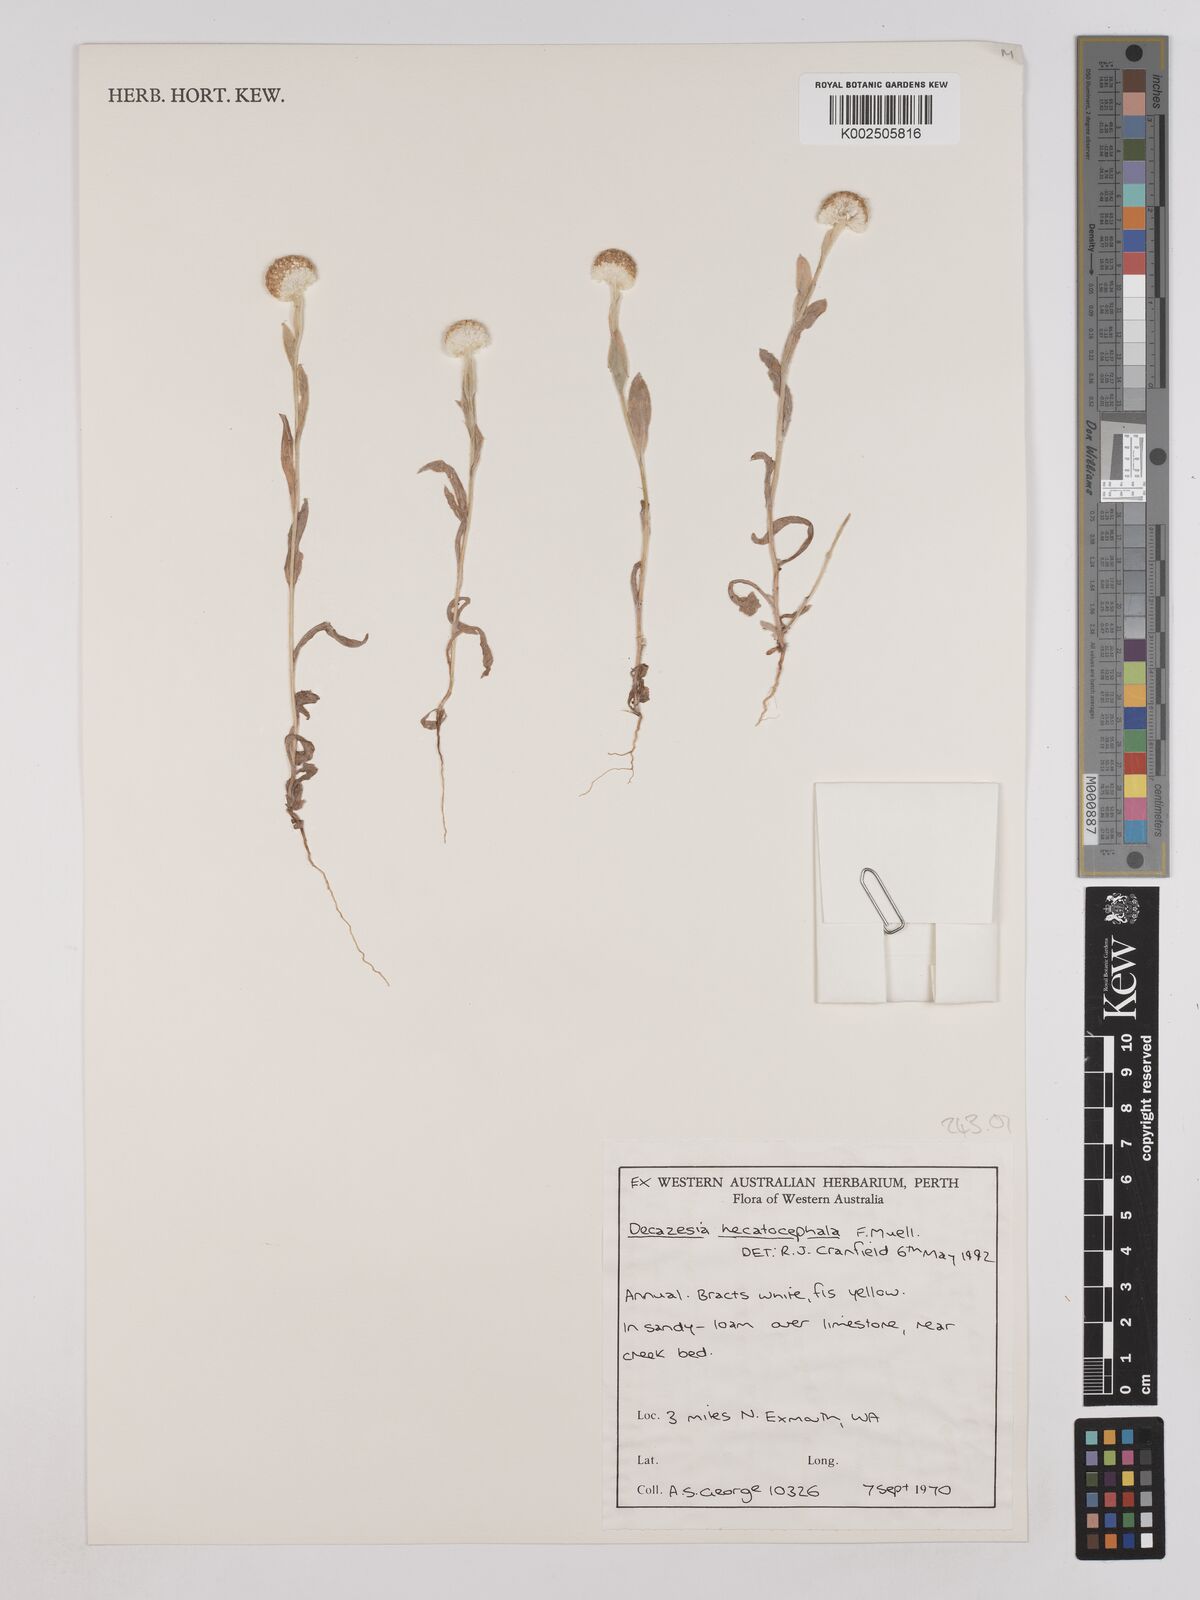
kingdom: Plantae
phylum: Tracheophyta
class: Magnoliopsida
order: Asterales
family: Asteraceae
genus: Decazesia
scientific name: Decazesia hecatocephala
